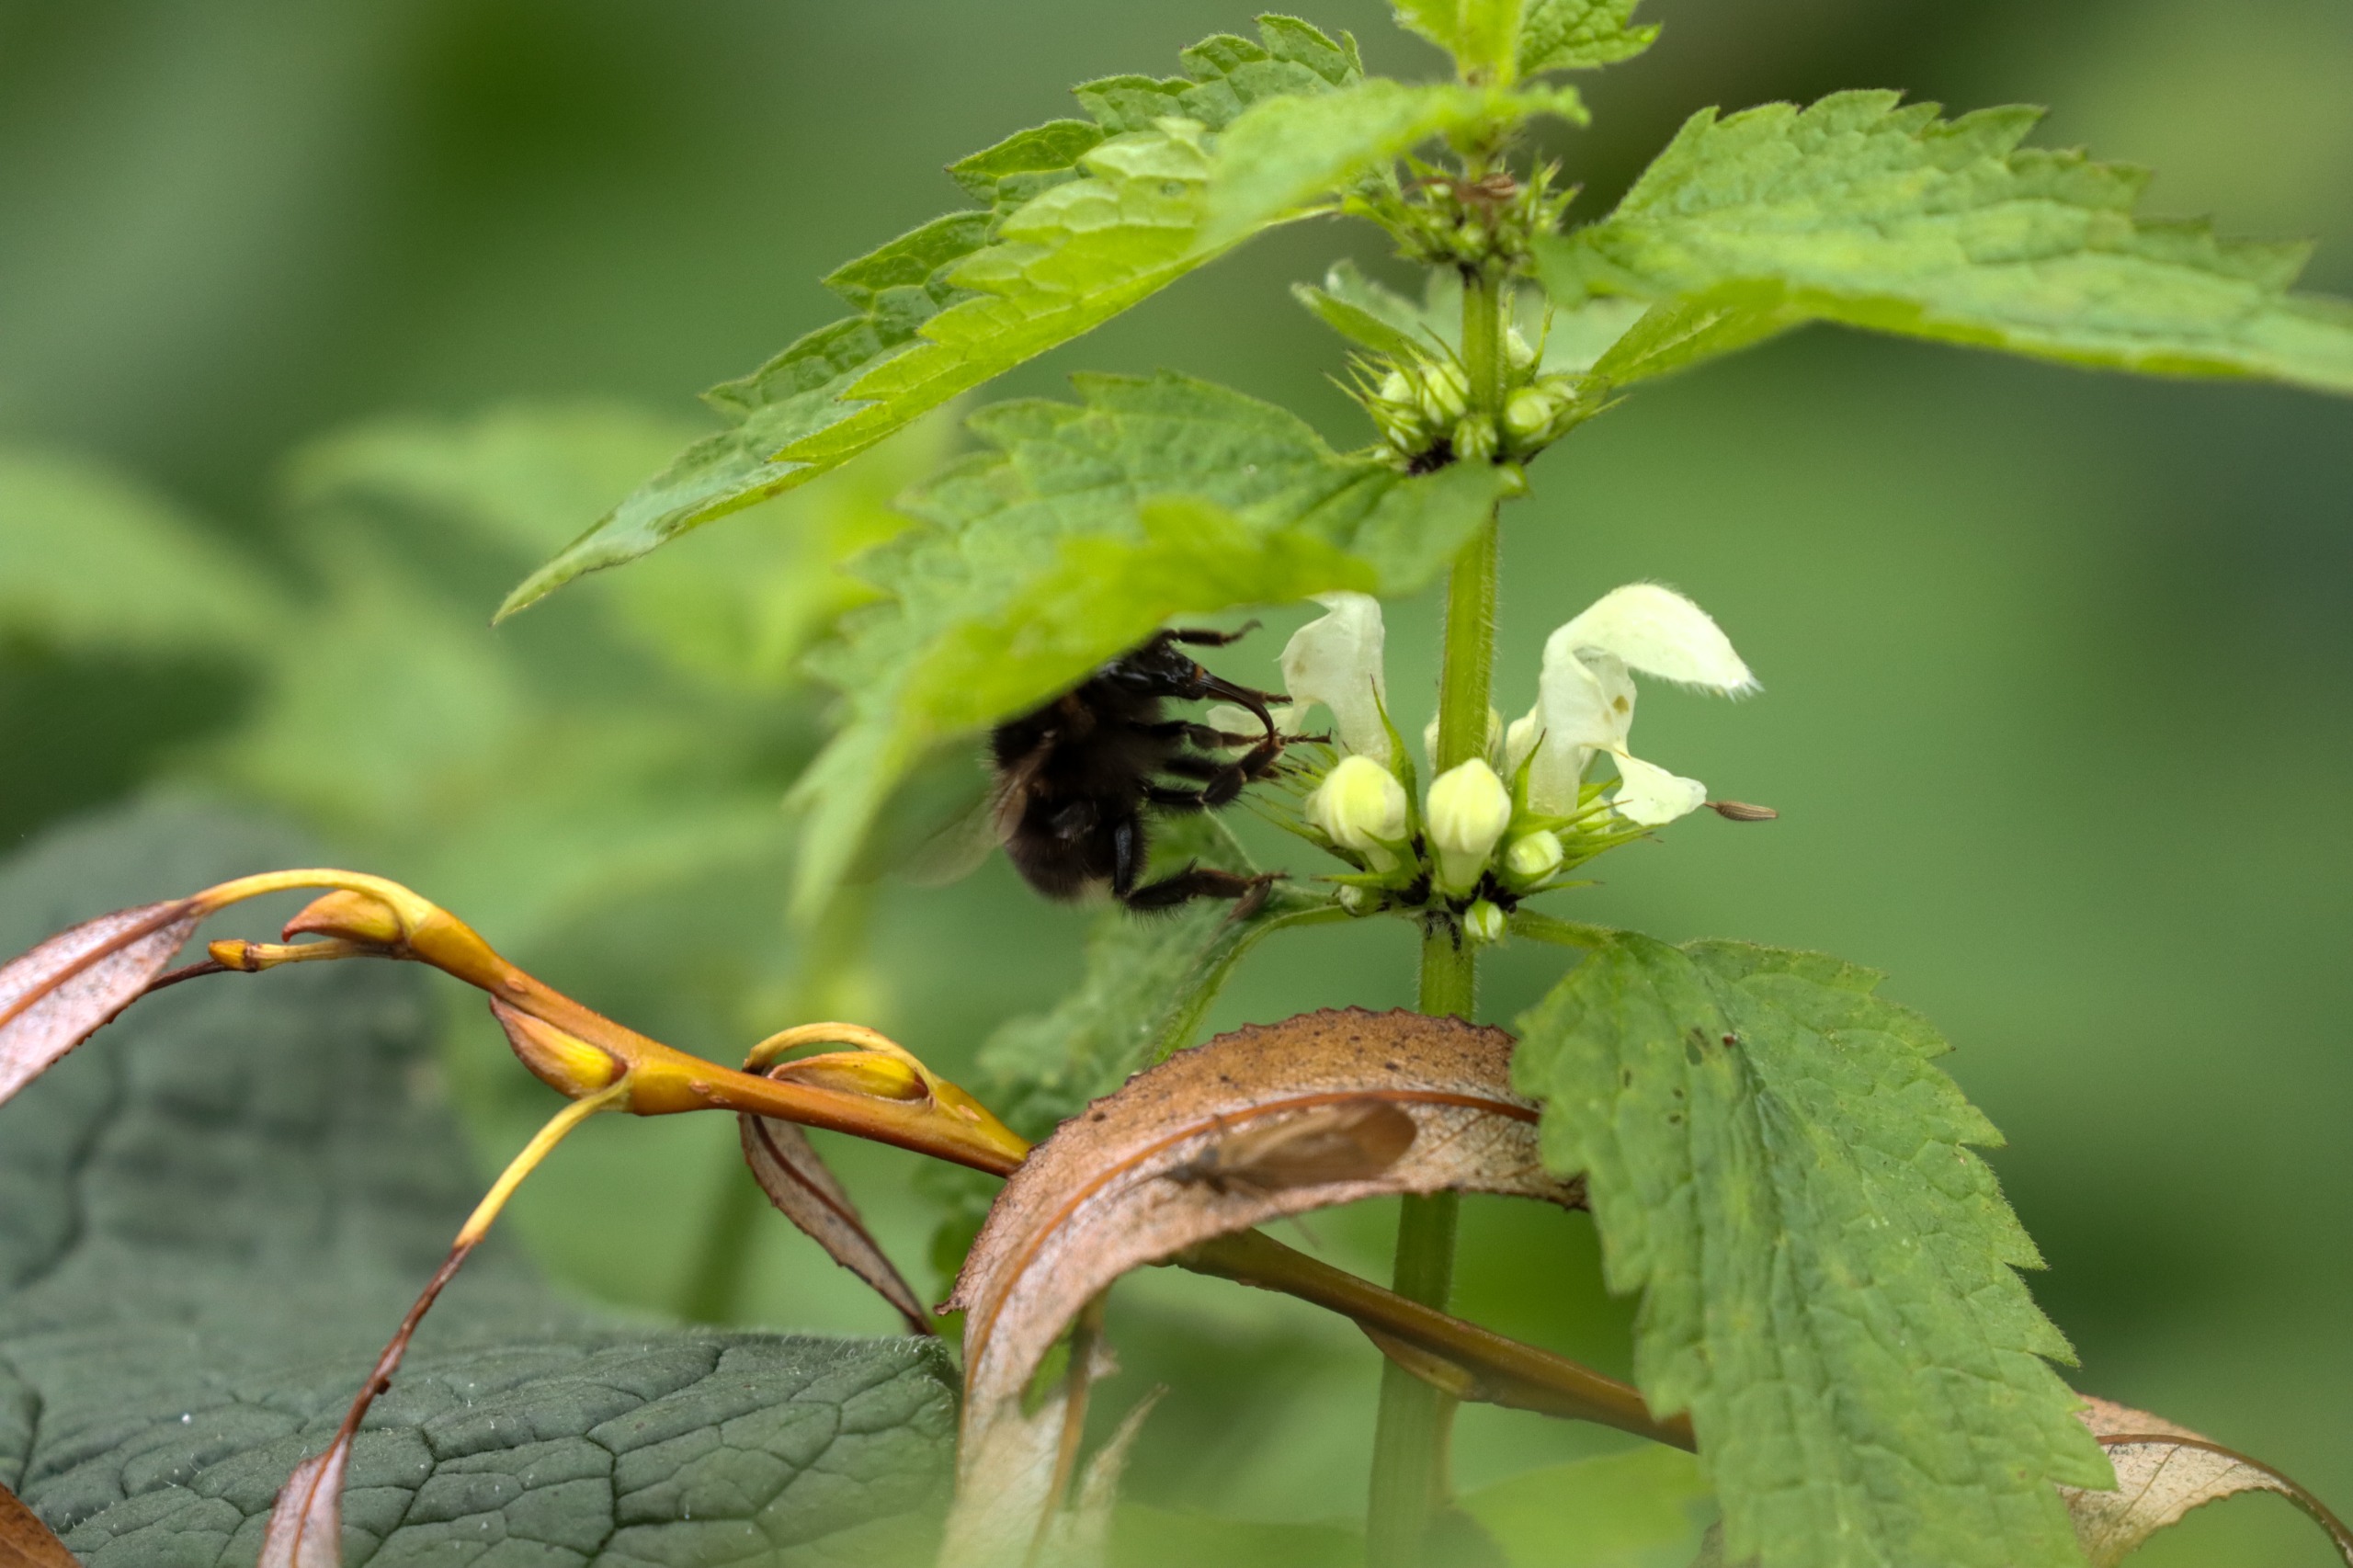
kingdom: Plantae
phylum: Tracheophyta
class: Magnoliopsida
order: Lamiales
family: Lamiaceae
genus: Lamium
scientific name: Lamium album
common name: Døvnælde
